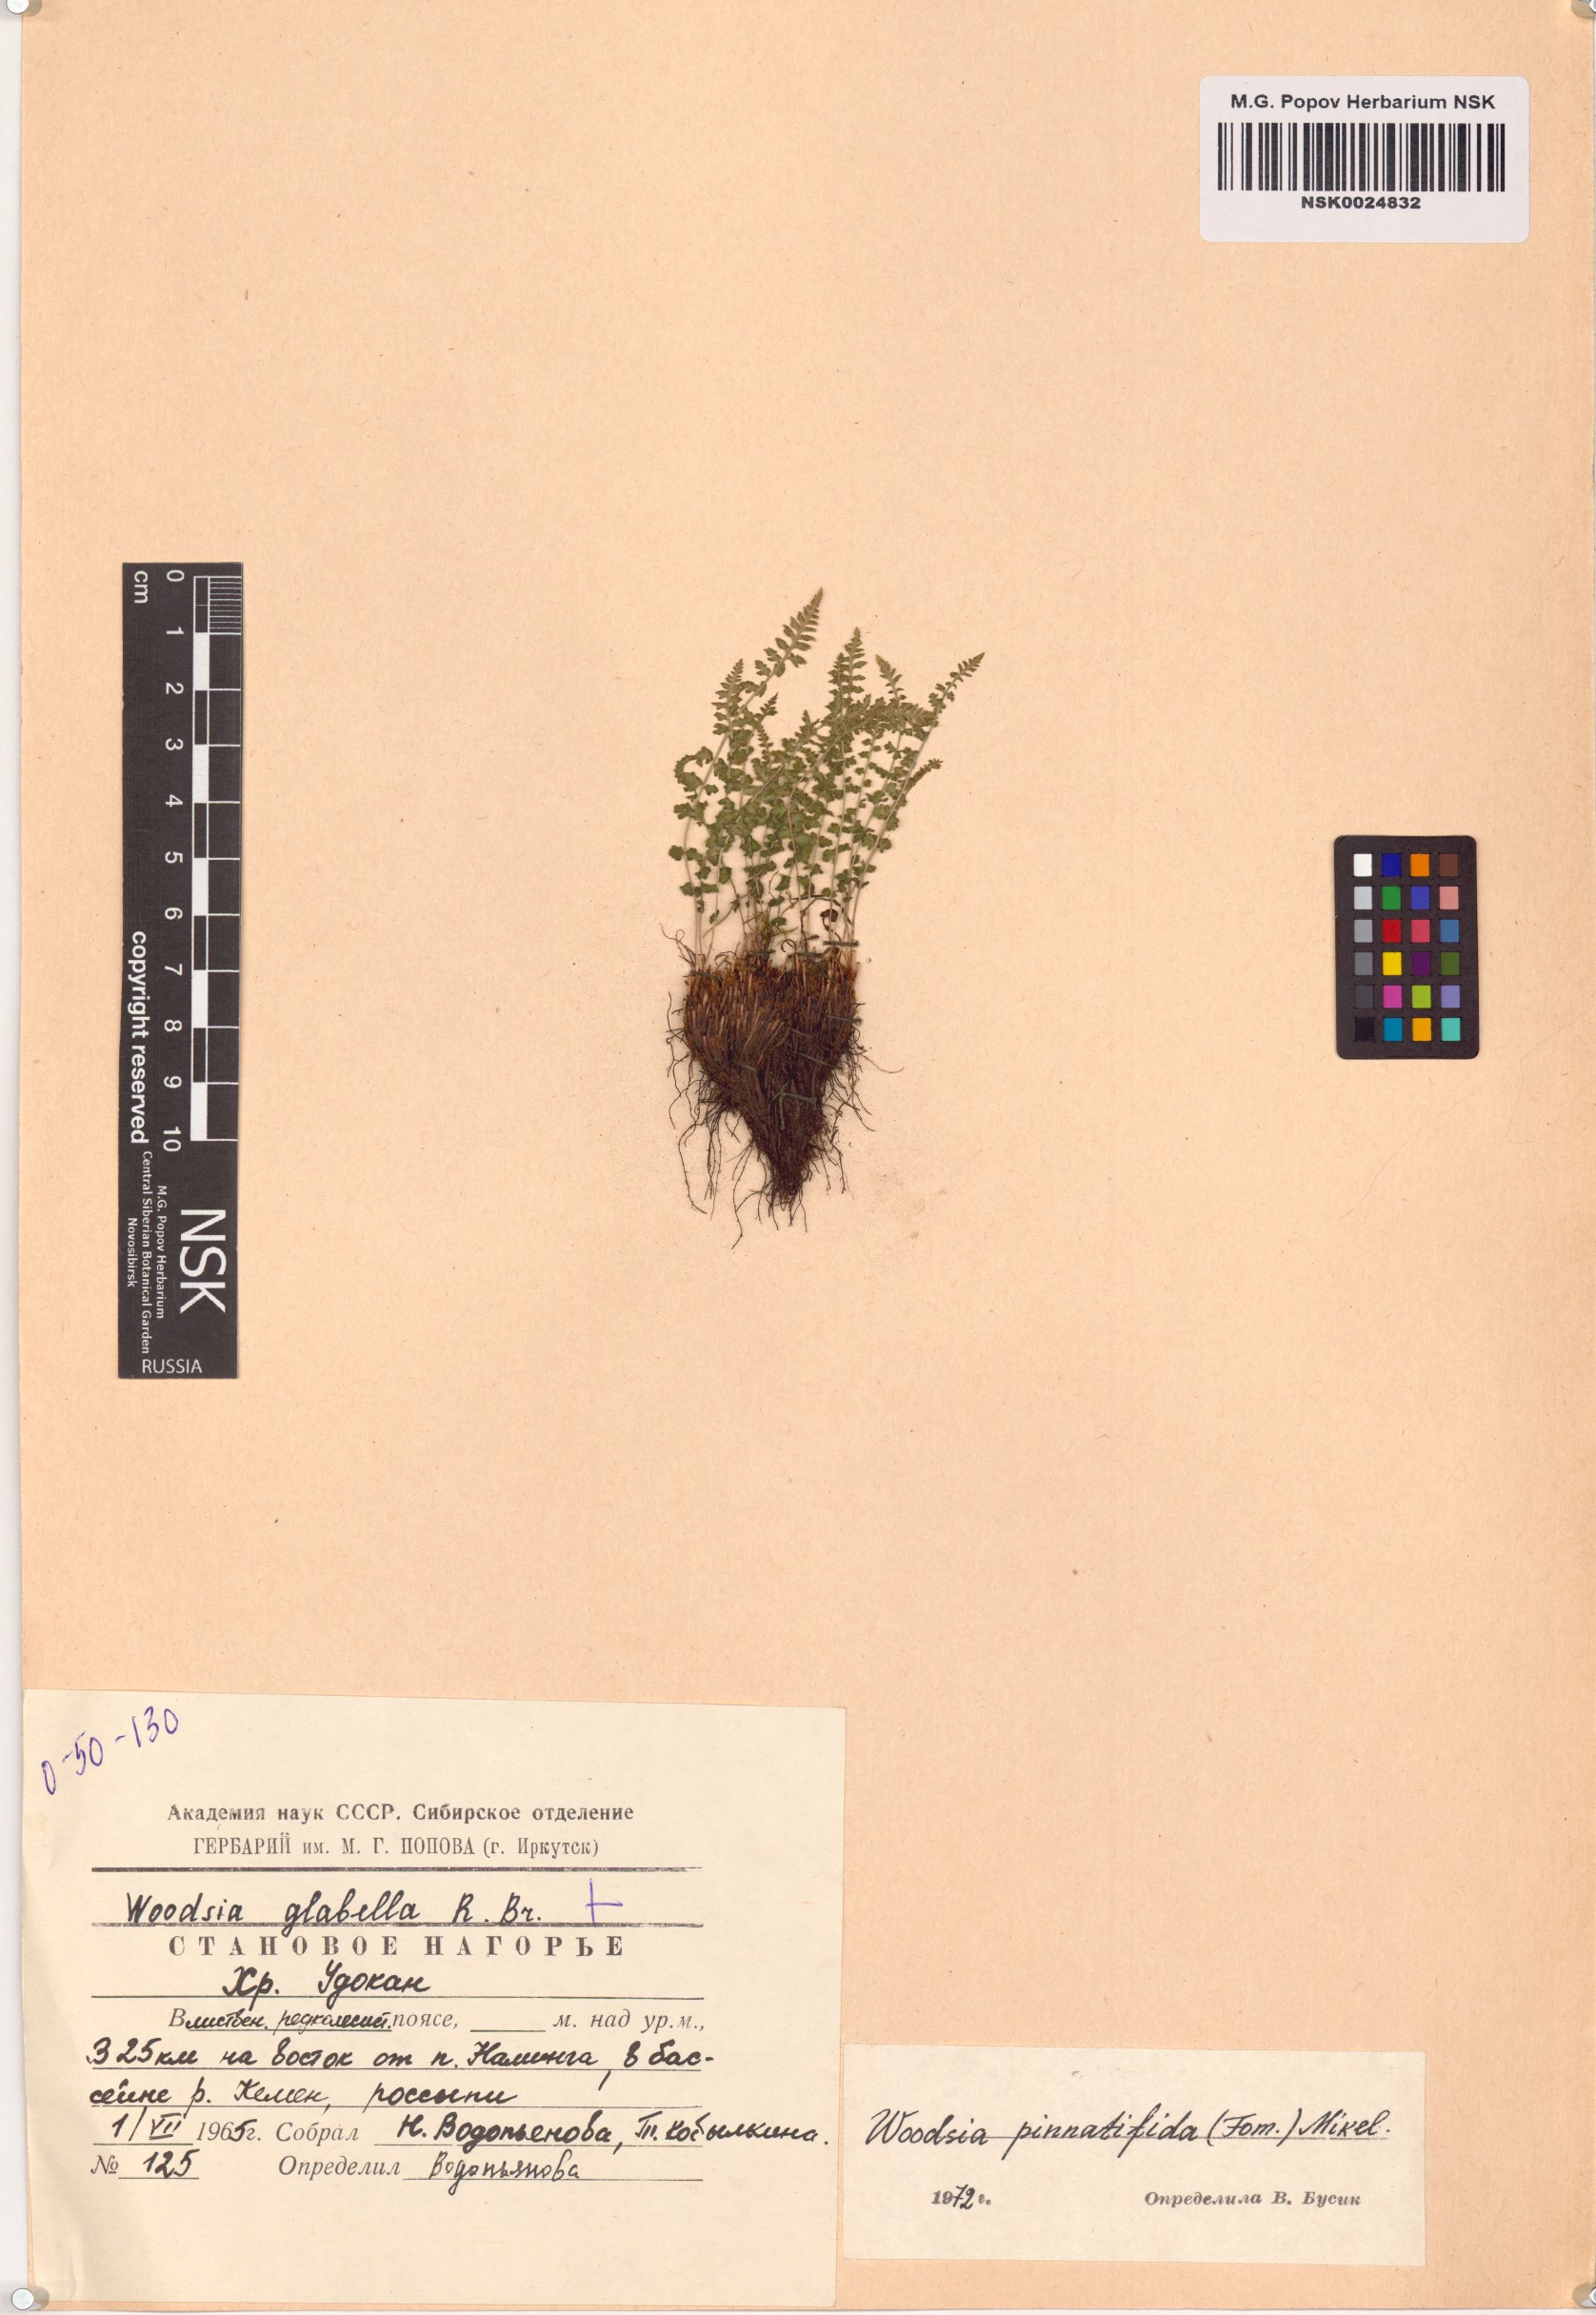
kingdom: Plantae
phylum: Tracheophyta
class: Polypodiopsida
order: Polypodiales
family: Woodsiaceae
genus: Woodsia
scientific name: Woodsia pulchella
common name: Graceful woodsia
